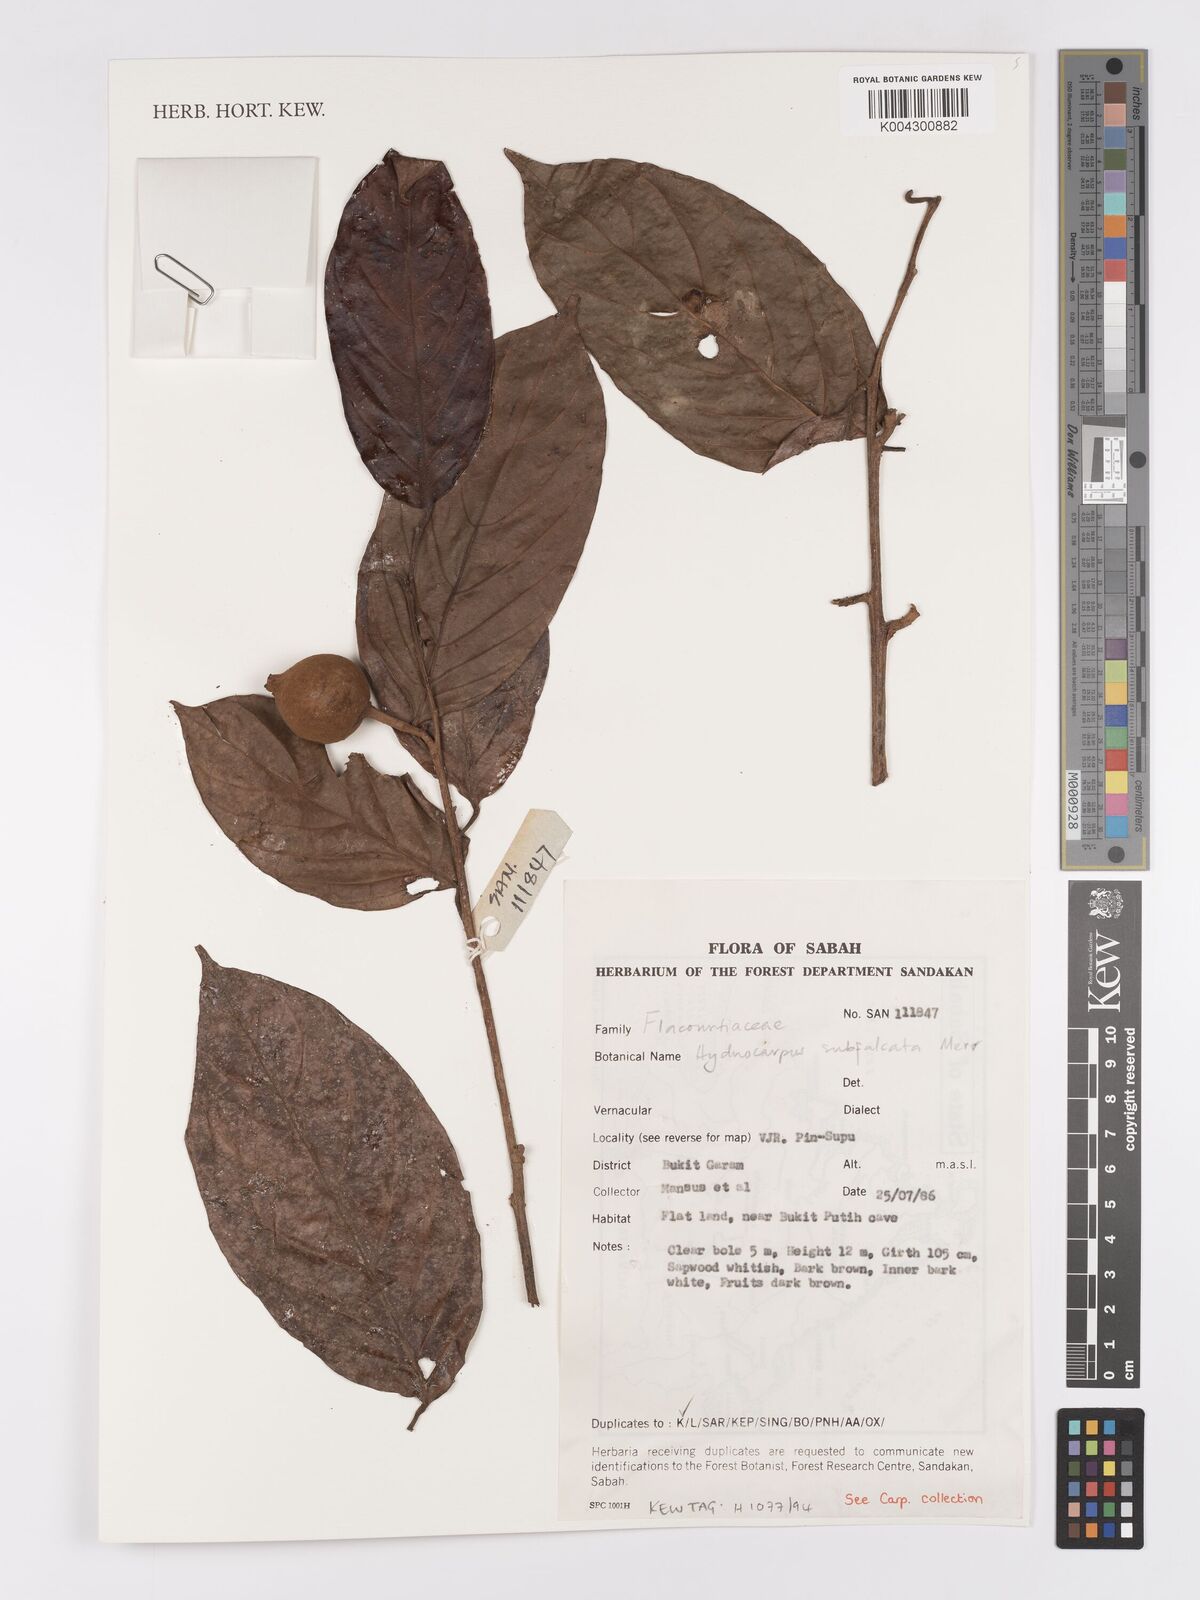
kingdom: Plantae
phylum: Tracheophyta
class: Magnoliopsida
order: Malpighiales
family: Achariaceae
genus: Hydnocarpus
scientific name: Hydnocarpus subfalcatus
